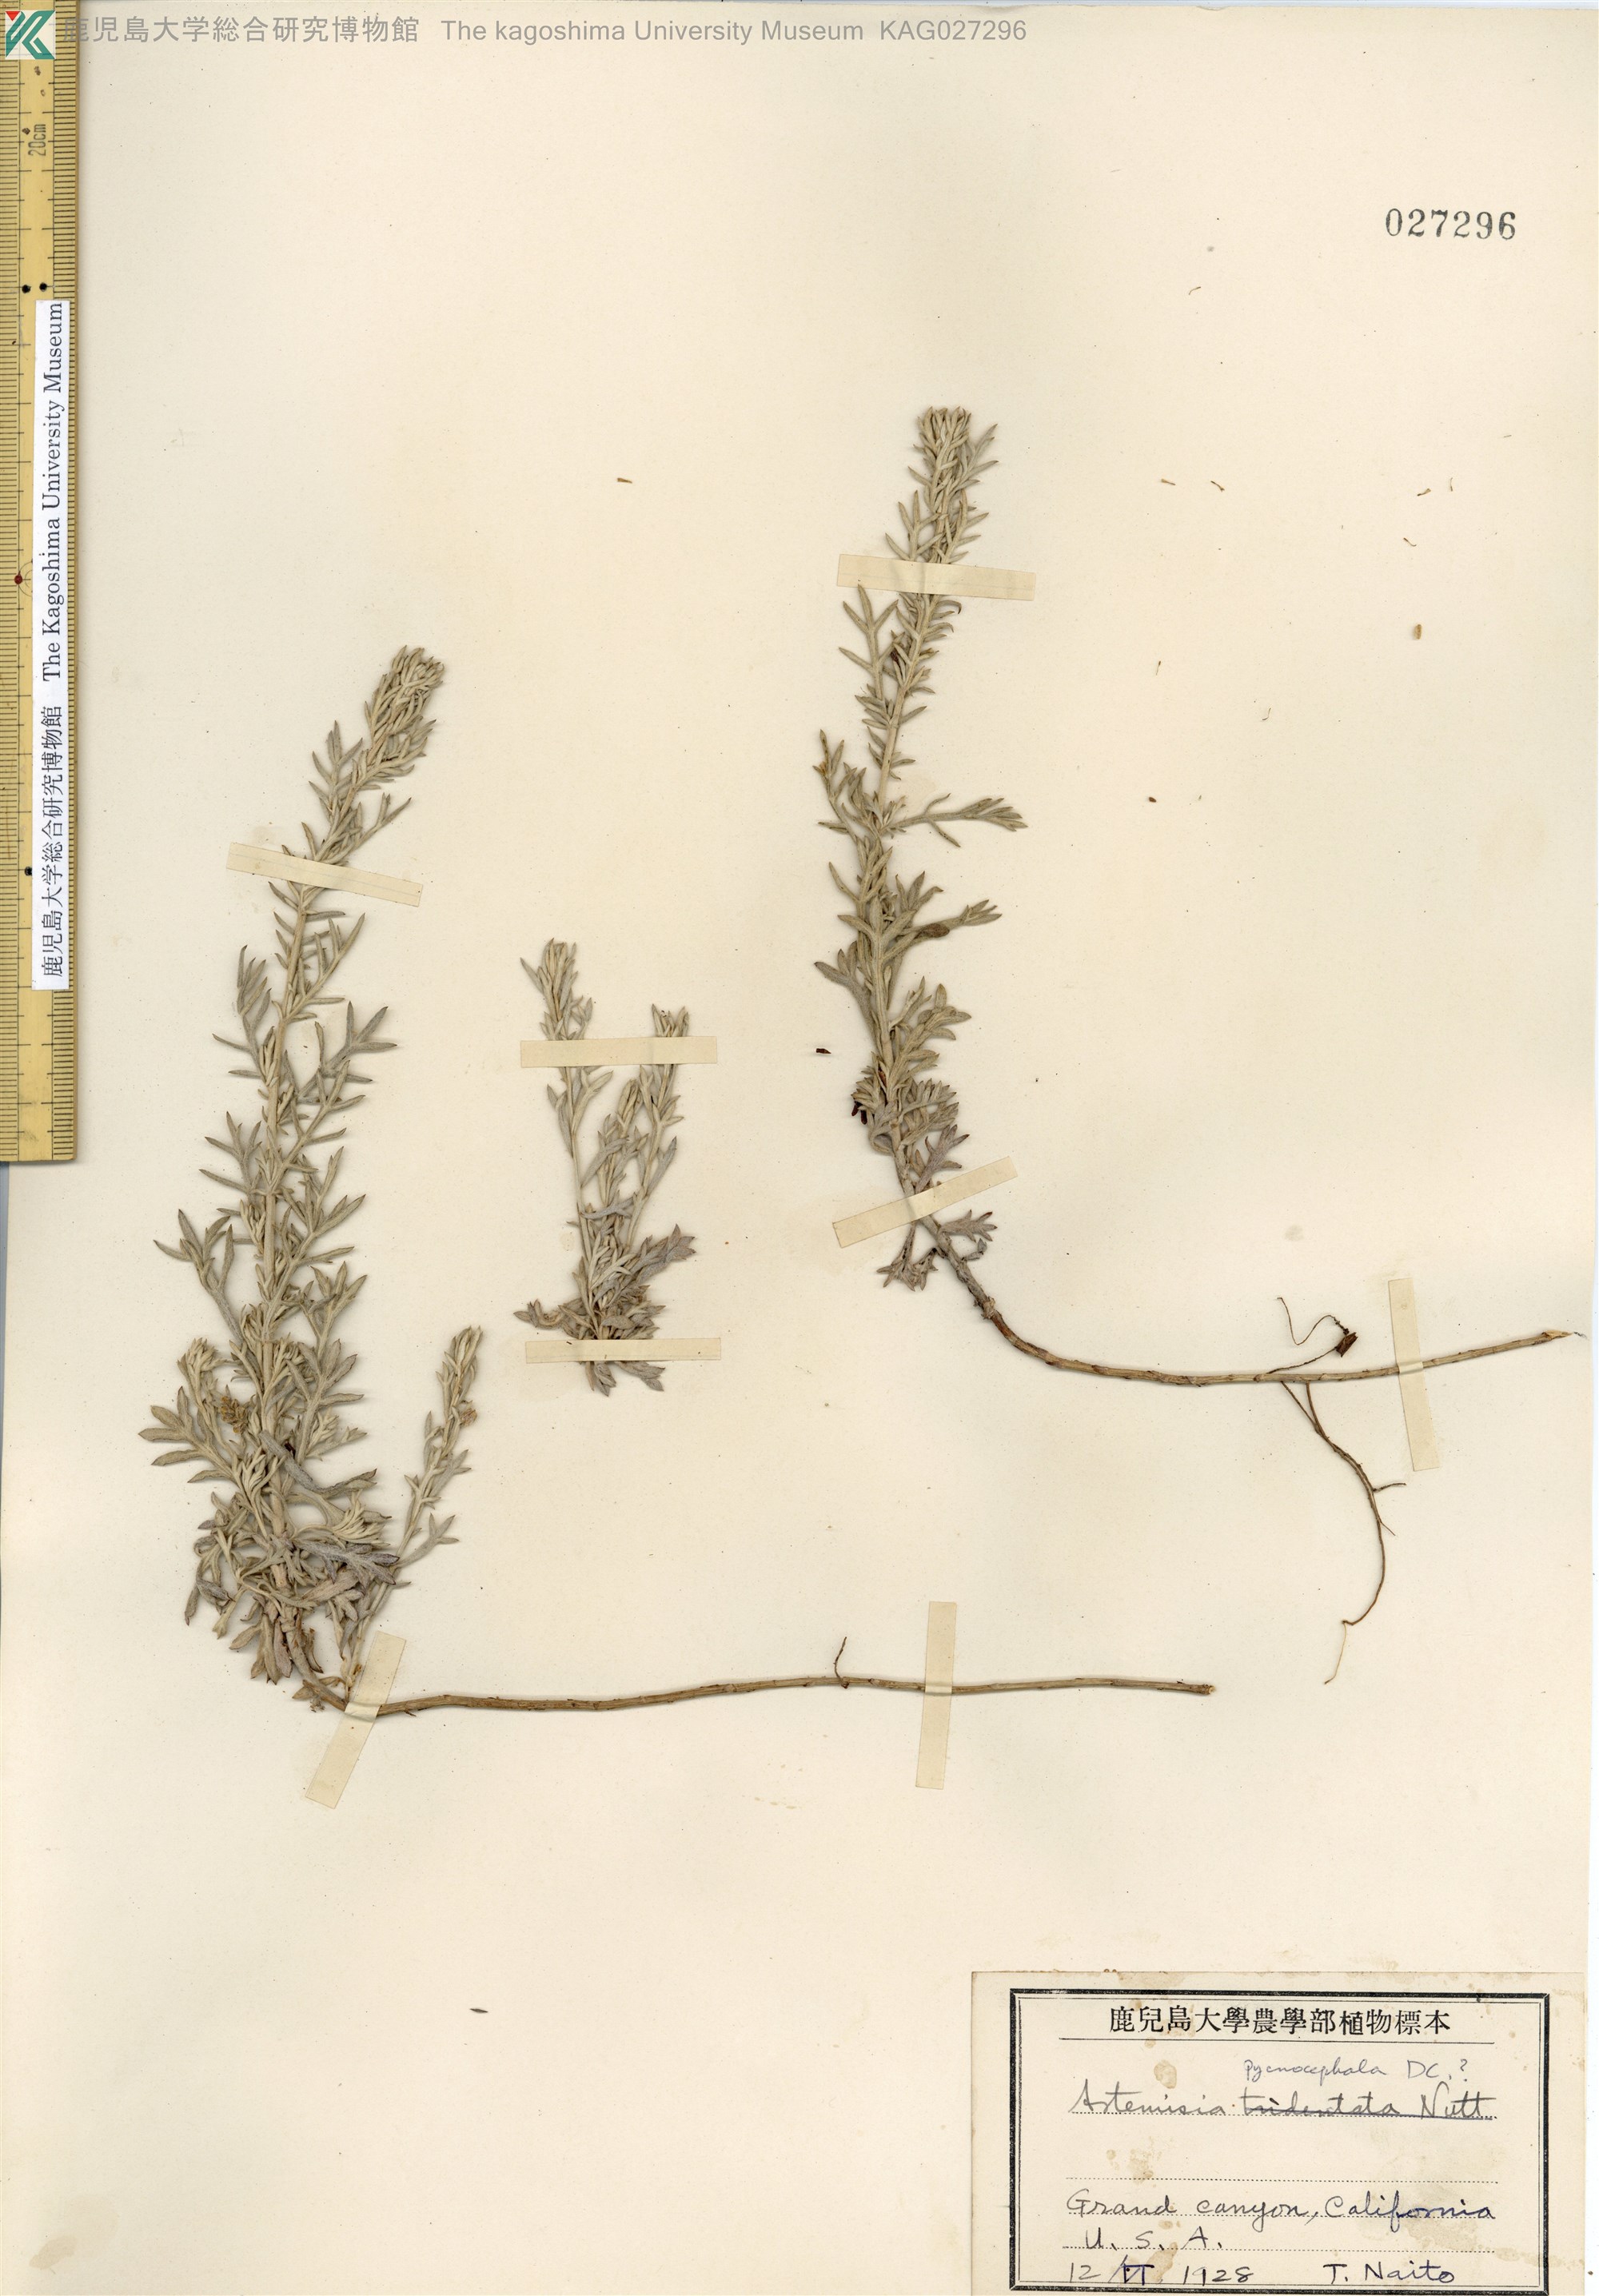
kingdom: Plantae
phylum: Tracheophyta
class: Magnoliopsida
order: Asterales
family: Asteraceae
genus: Artemisia
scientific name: Artemisia pycnocephala
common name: Coastal sagewort
